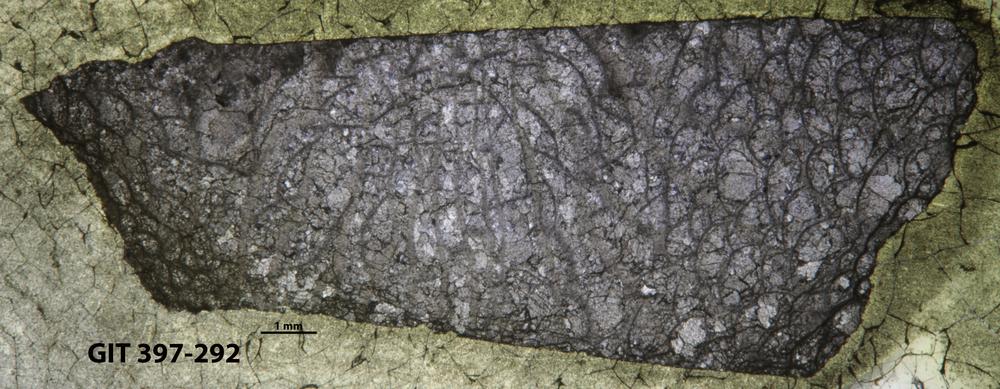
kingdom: Animalia
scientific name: Animalia
